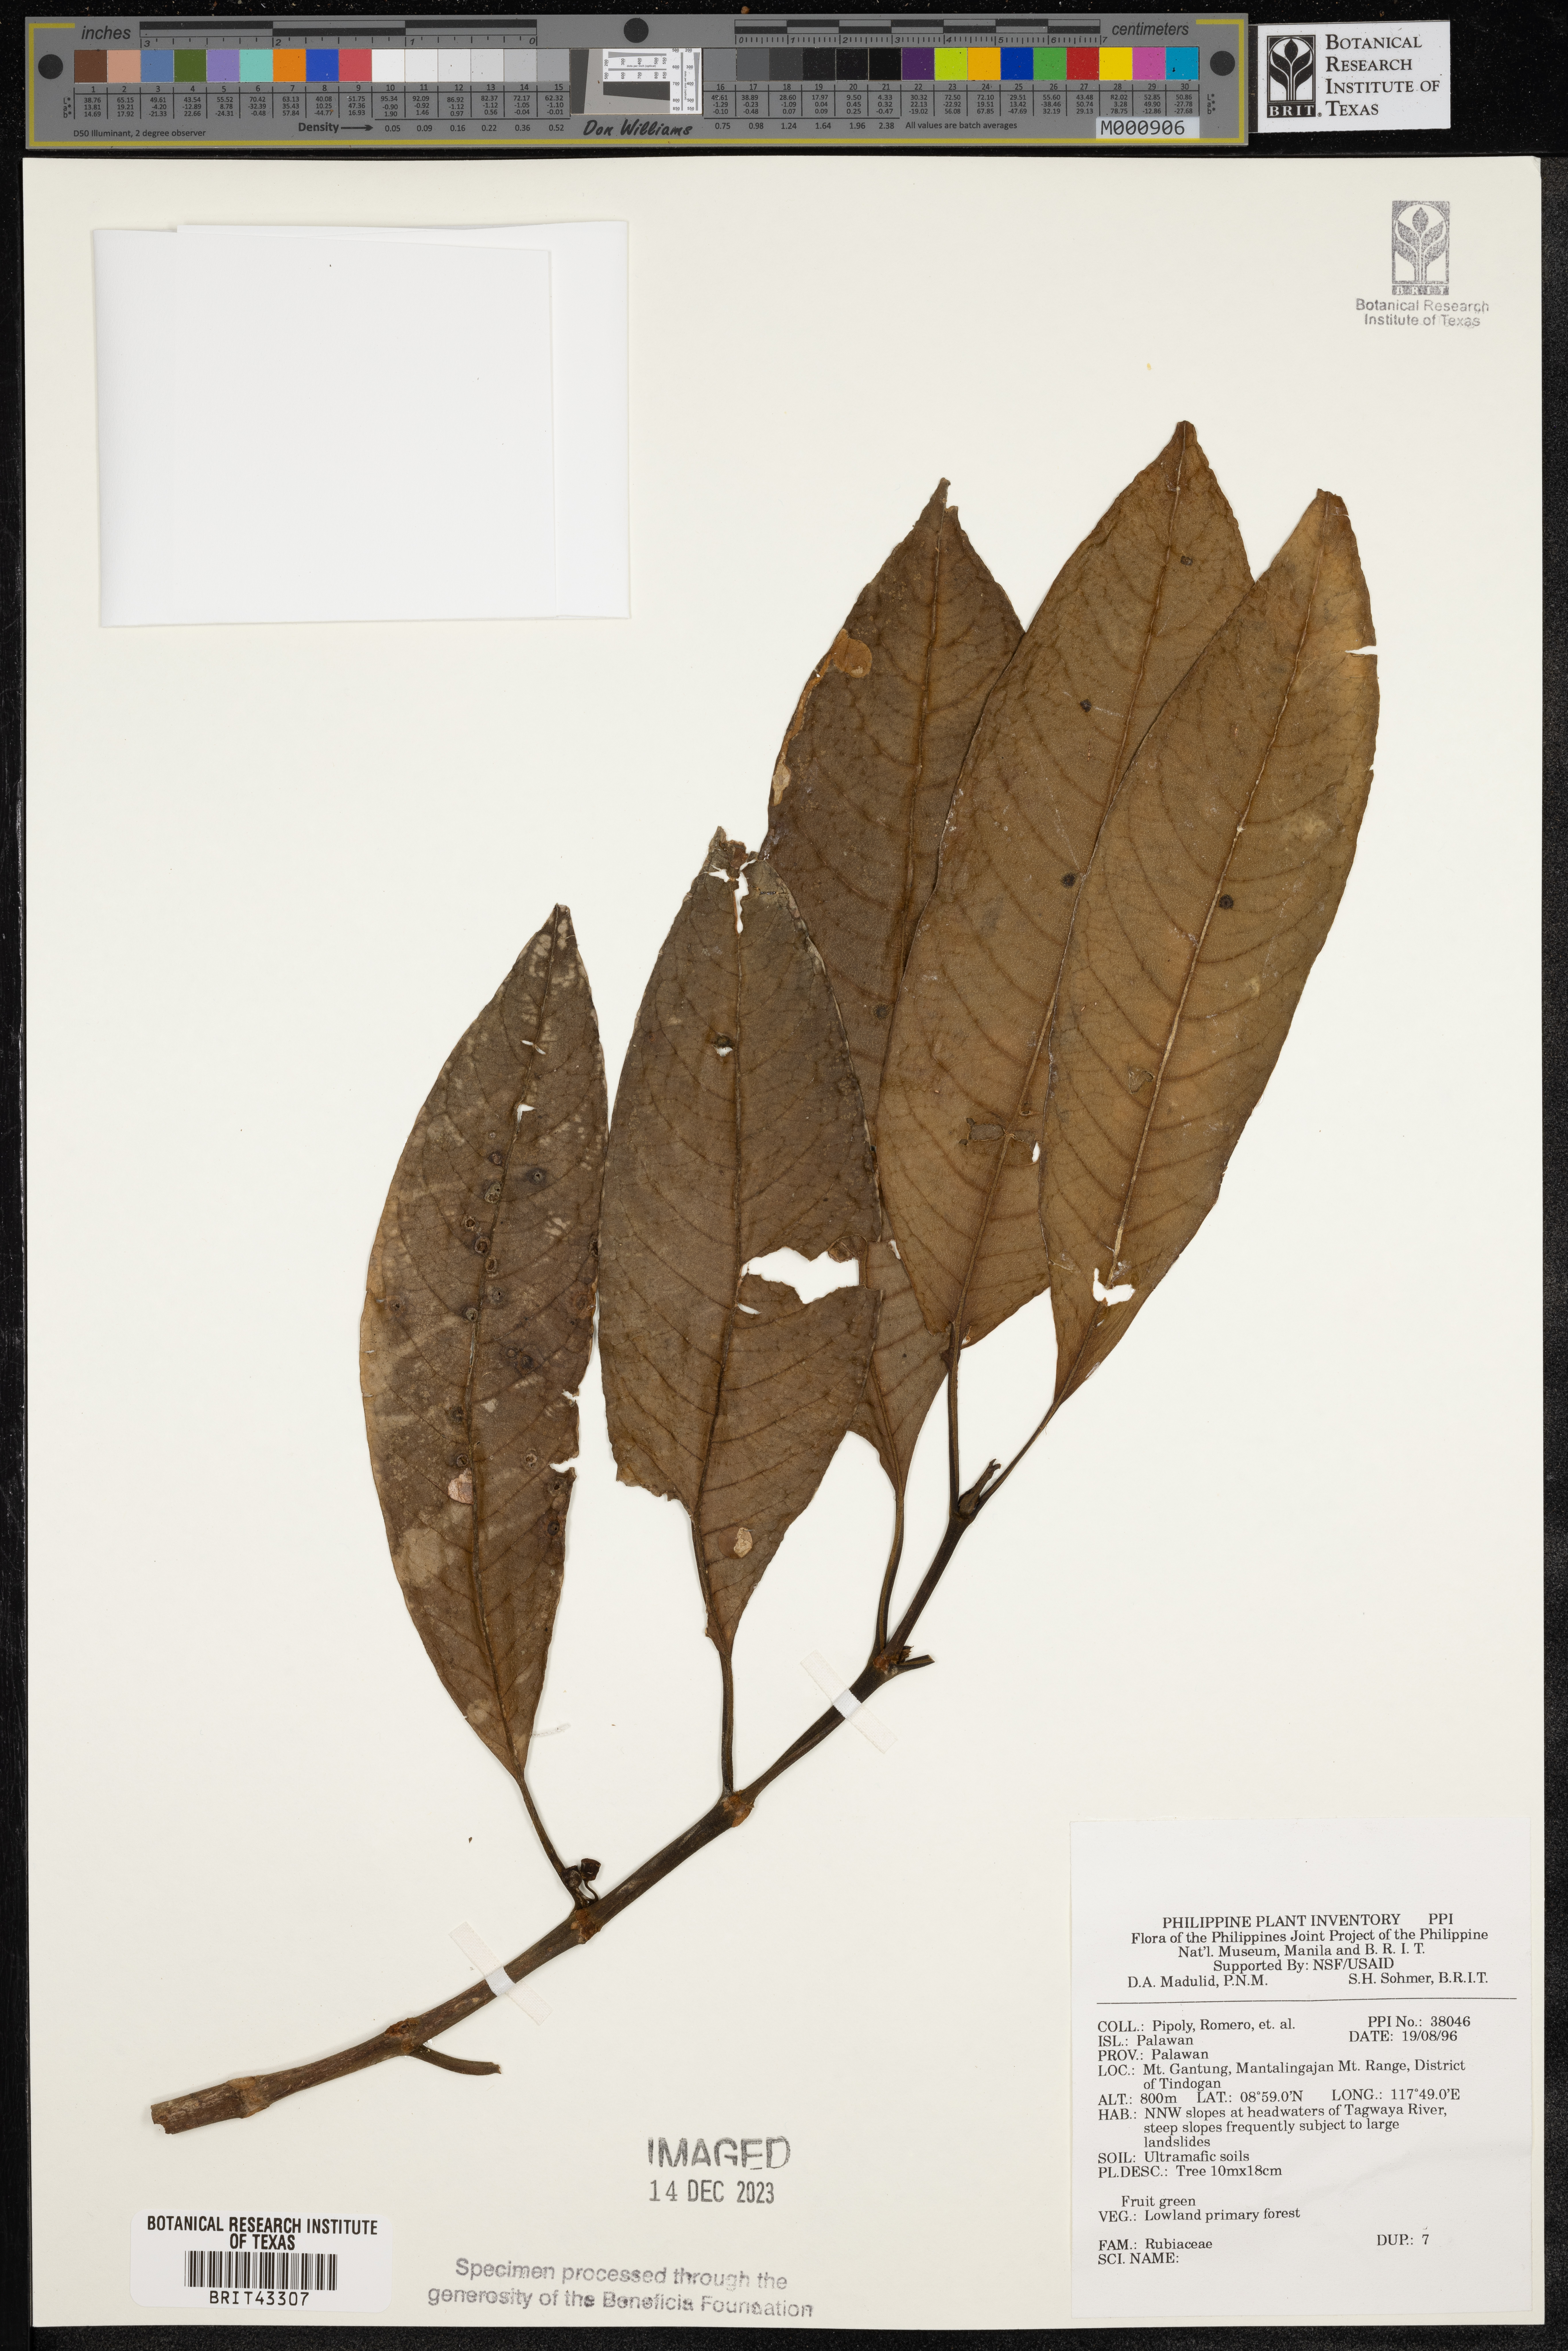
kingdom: Plantae
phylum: Tracheophyta
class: Magnoliopsida
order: Gentianales
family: Rubiaceae
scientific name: Rubiaceae
